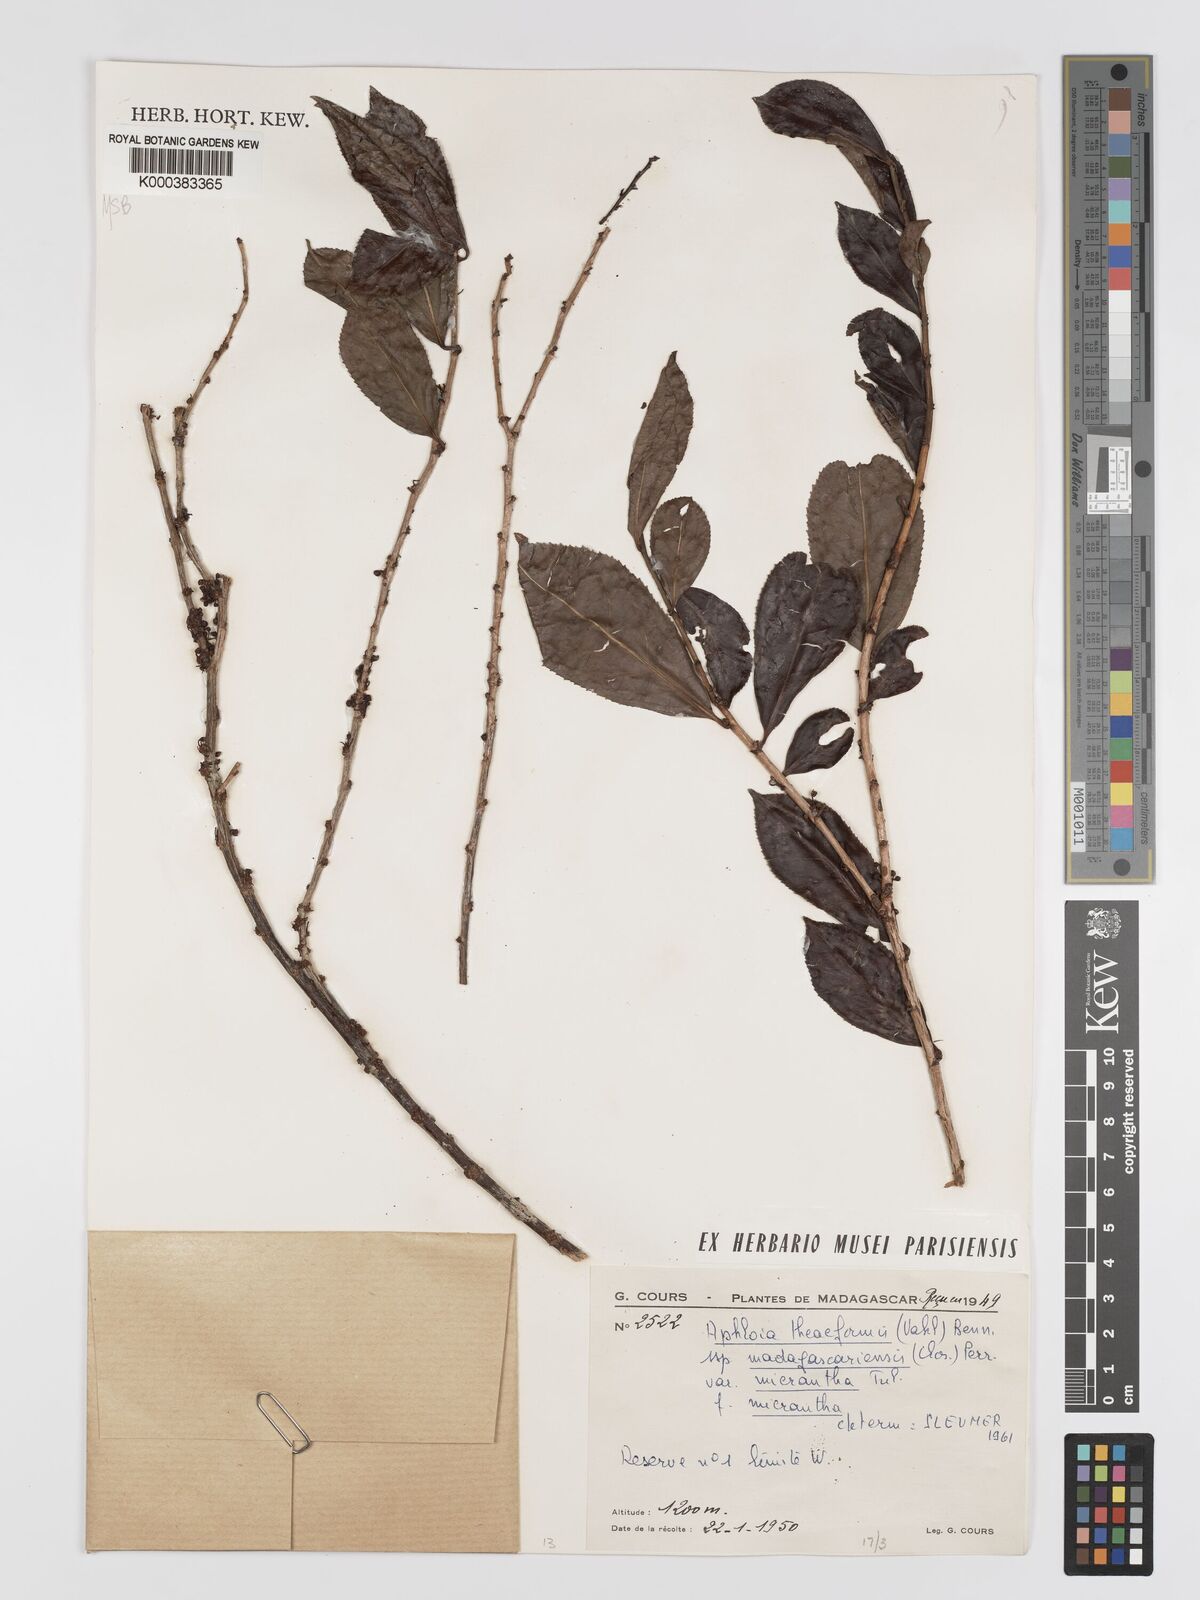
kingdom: Plantae
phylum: Tracheophyta
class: Magnoliopsida
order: Crossosomatales
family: Aphloiaceae
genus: Aphloia
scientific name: Aphloia theiformis
